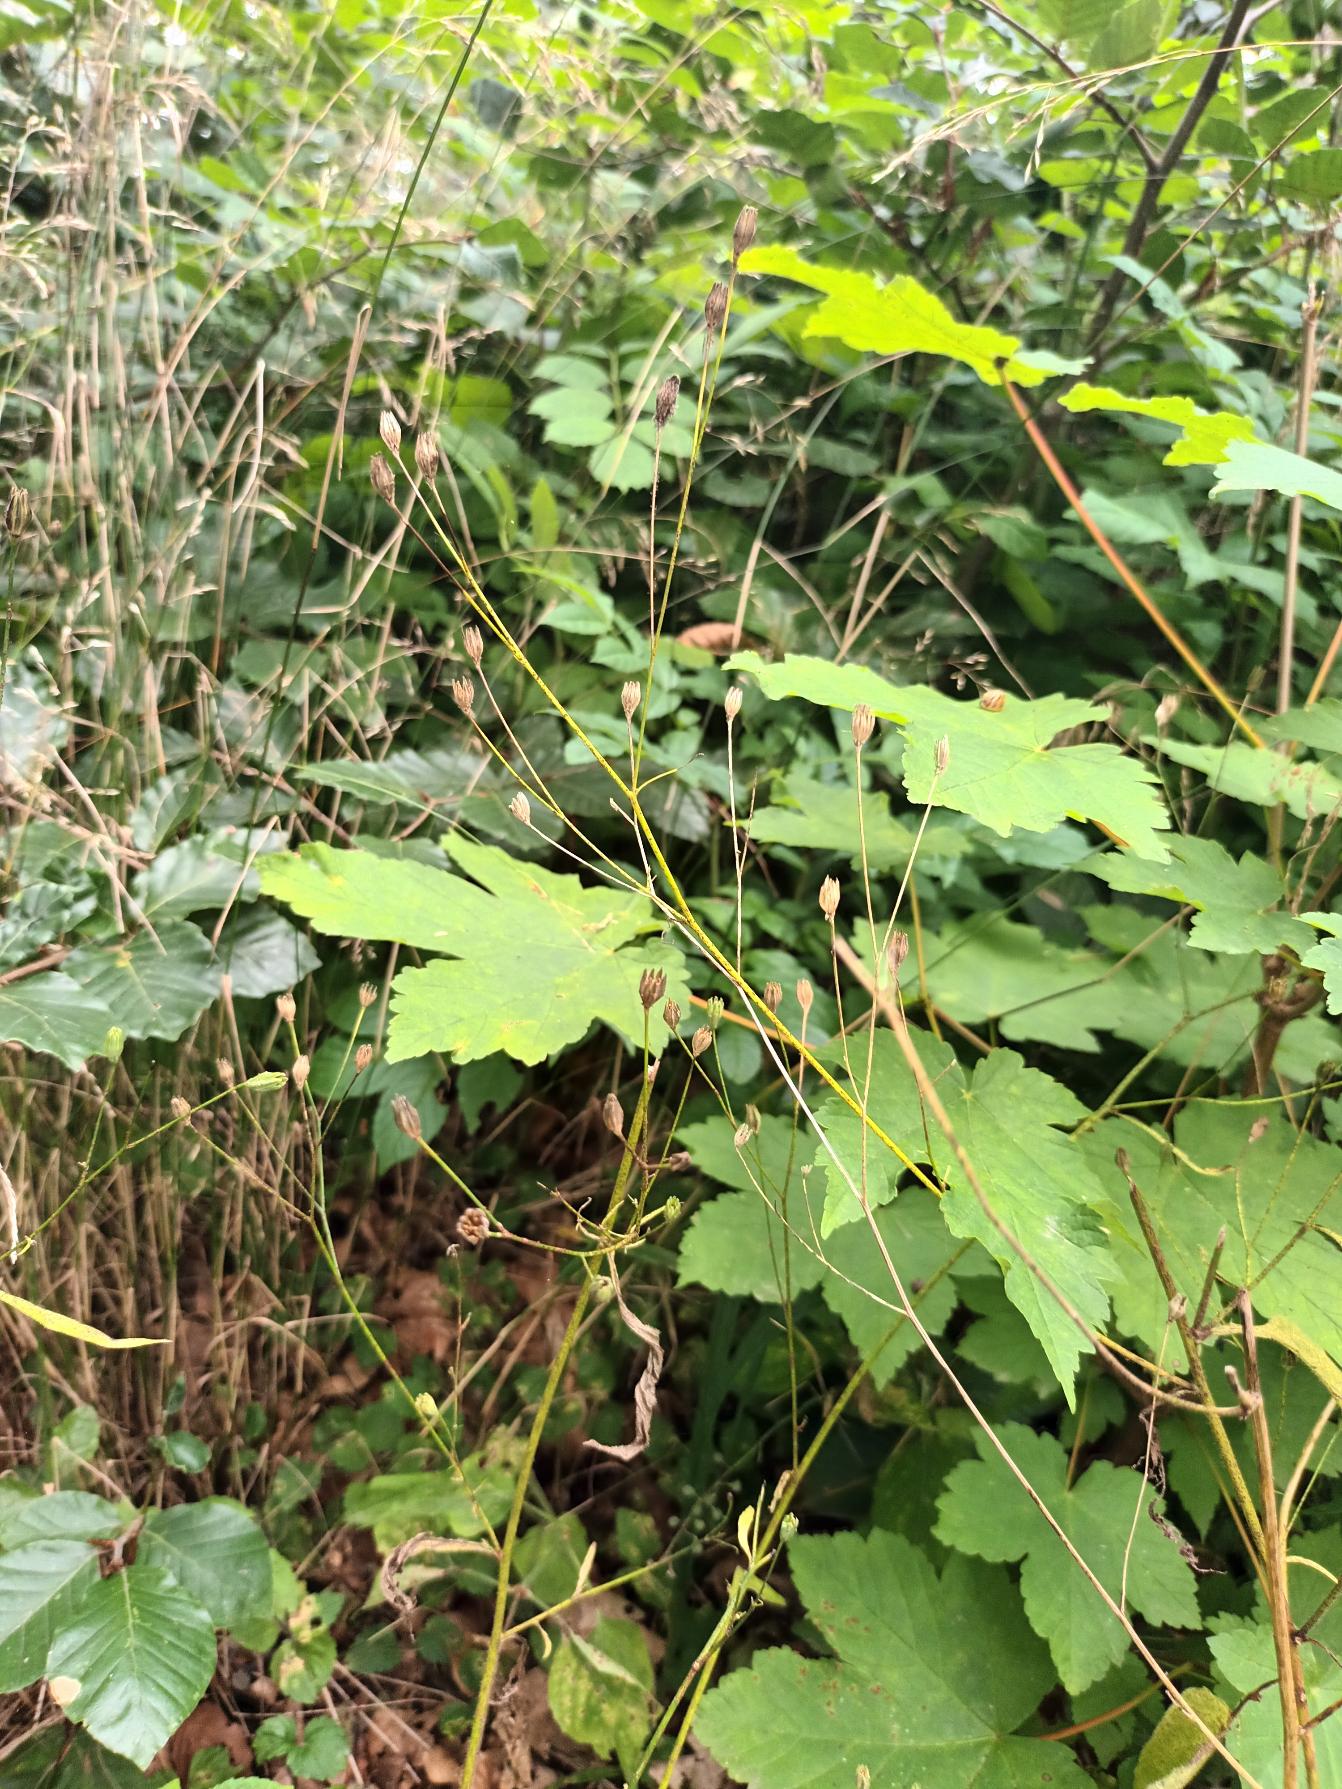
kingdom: Plantae
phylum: Tracheophyta
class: Magnoliopsida
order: Asterales
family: Asteraceae
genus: Lapsana
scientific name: Lapsana communis
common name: Haremad
